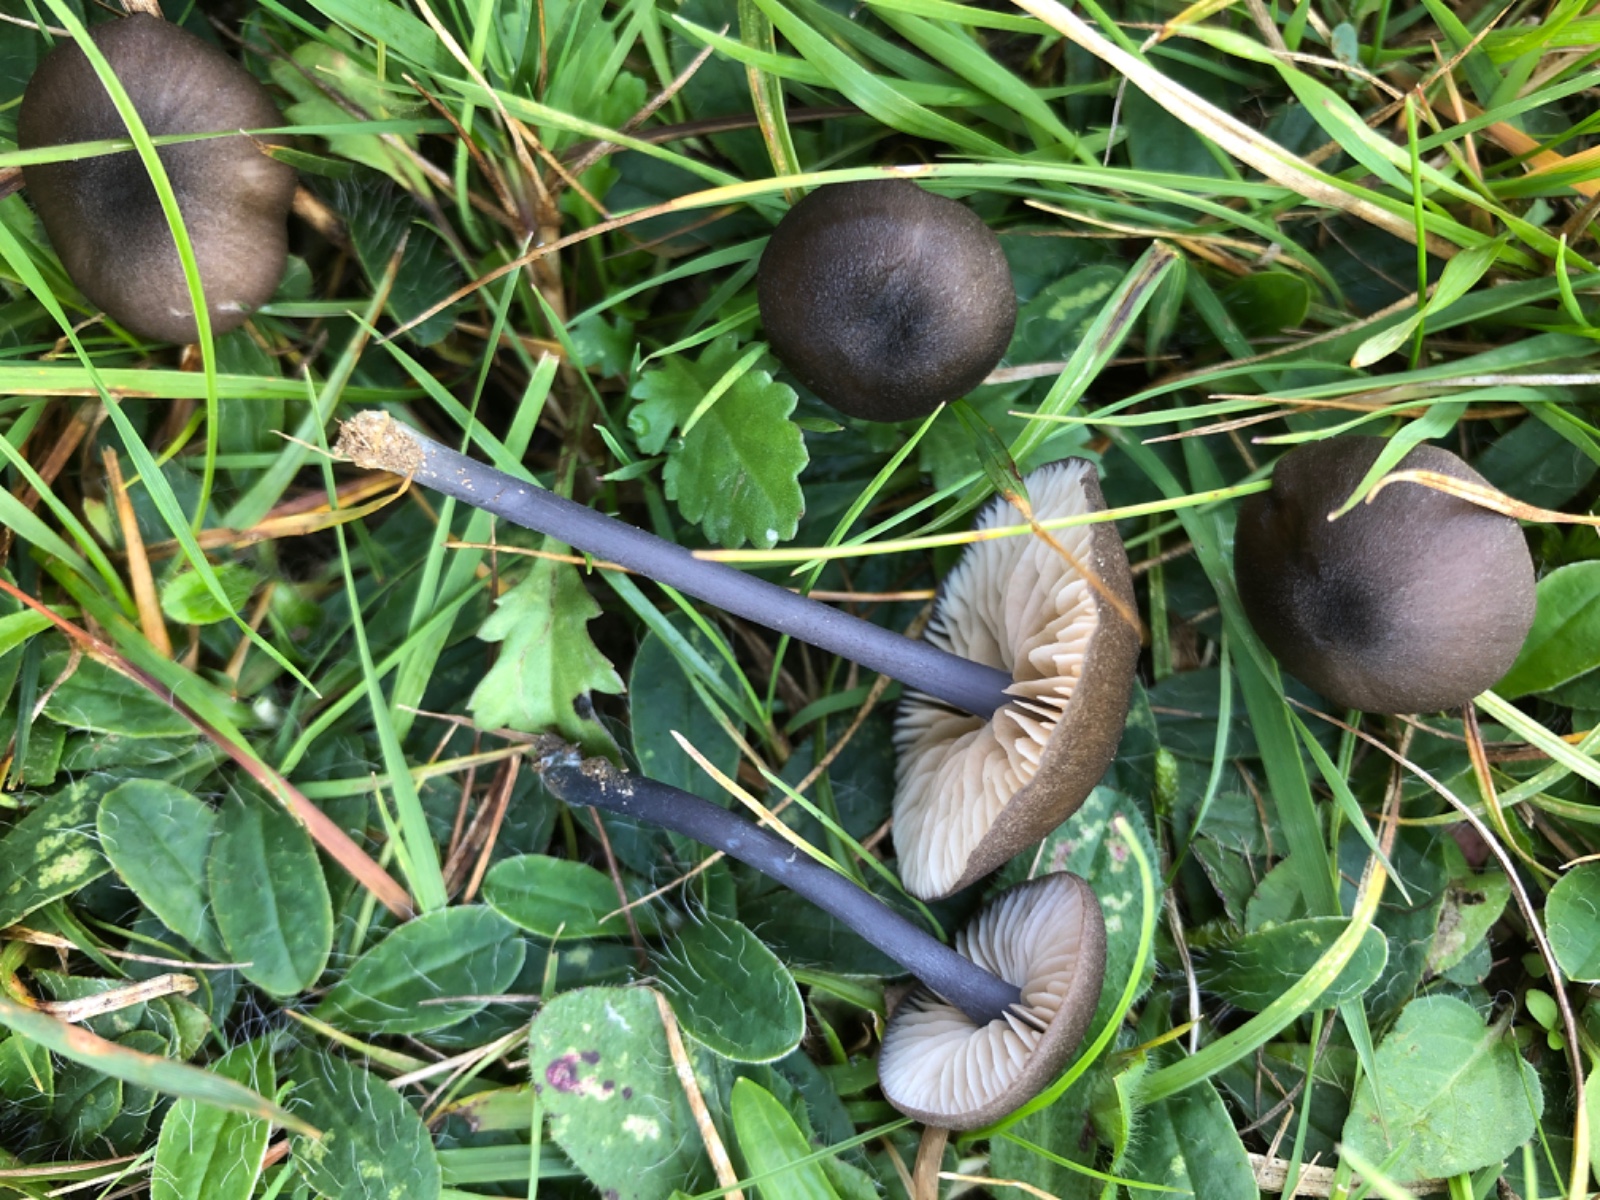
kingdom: Fungi
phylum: Basidiomycota
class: Agaricomycetes
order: Agaricales
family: Entolomataceae
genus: Entoloma
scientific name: Entoloma
